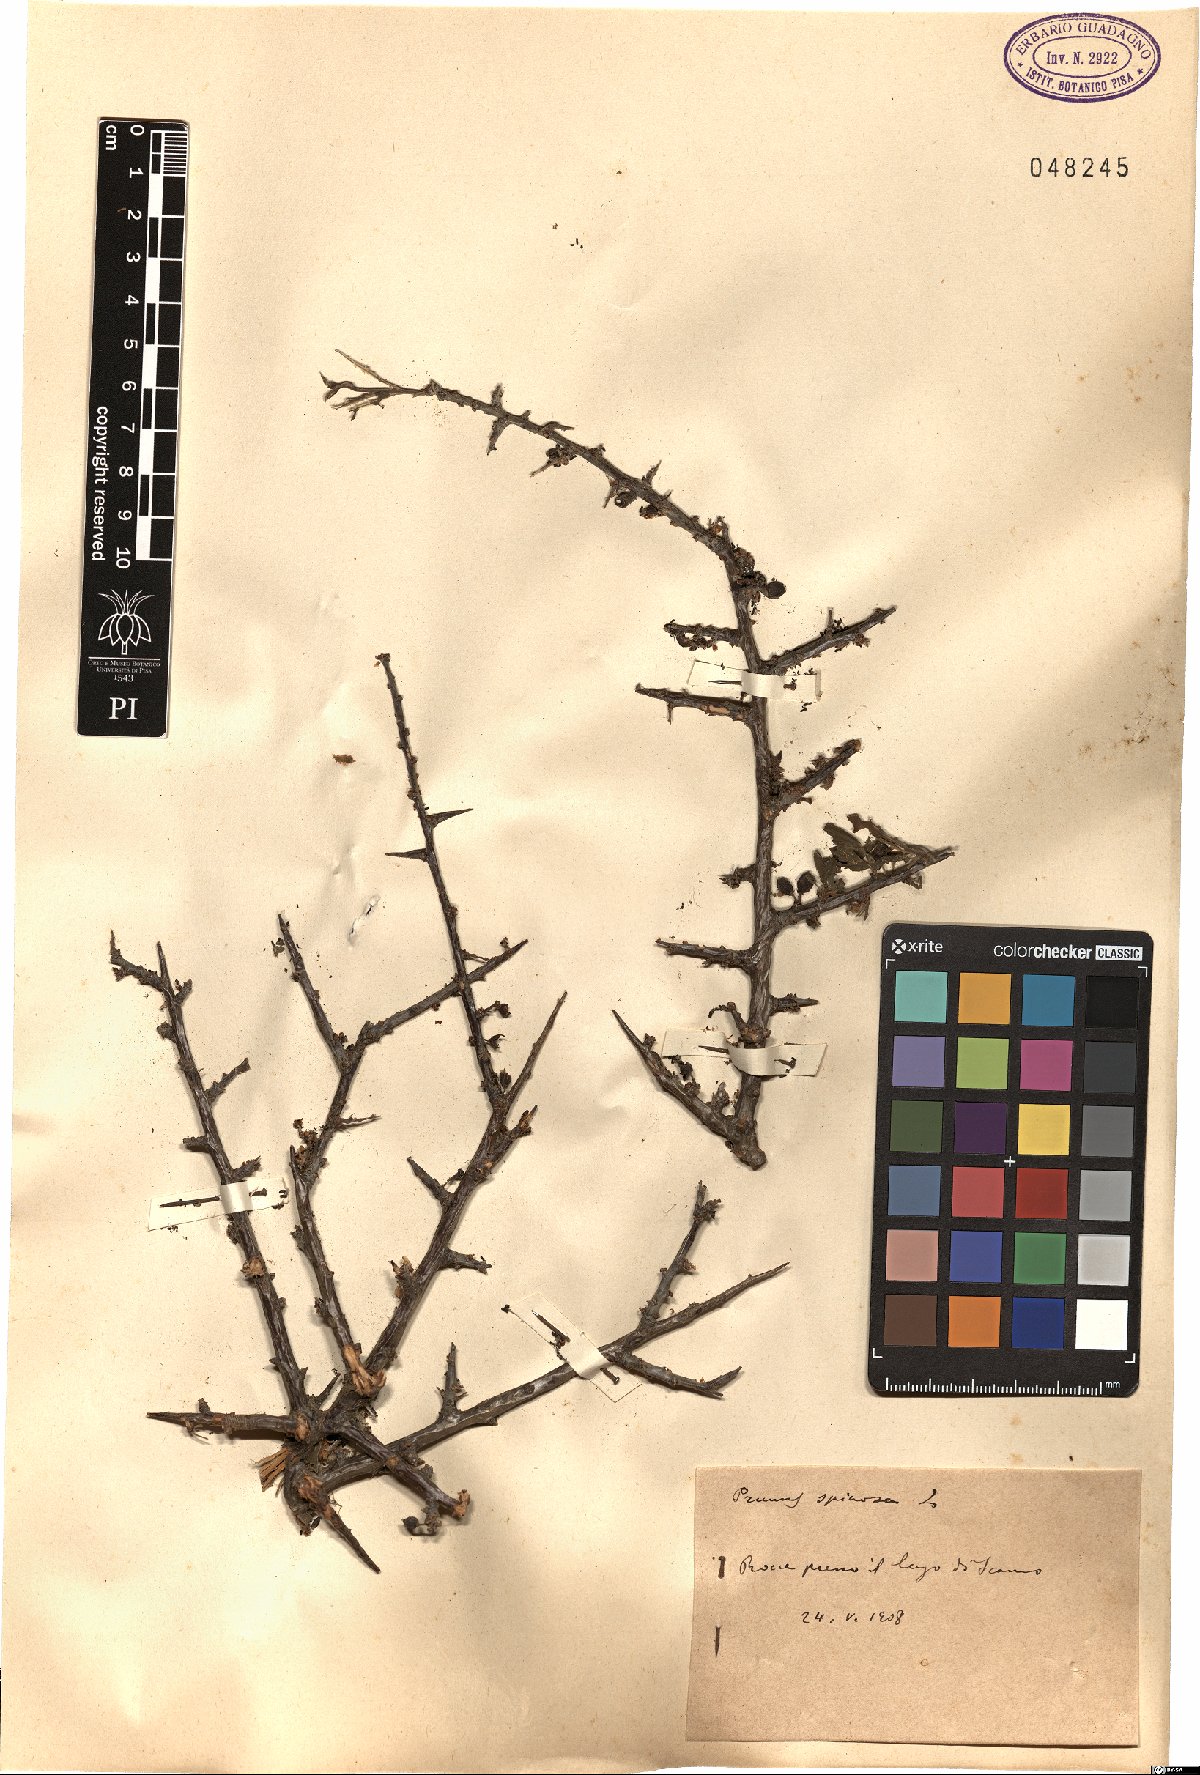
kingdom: Plantae
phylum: Tracheophyta
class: Magnoliopsida
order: Rosales
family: Rosaceae
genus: Prunus
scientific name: Prunus spinosa
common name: Blackthorn
